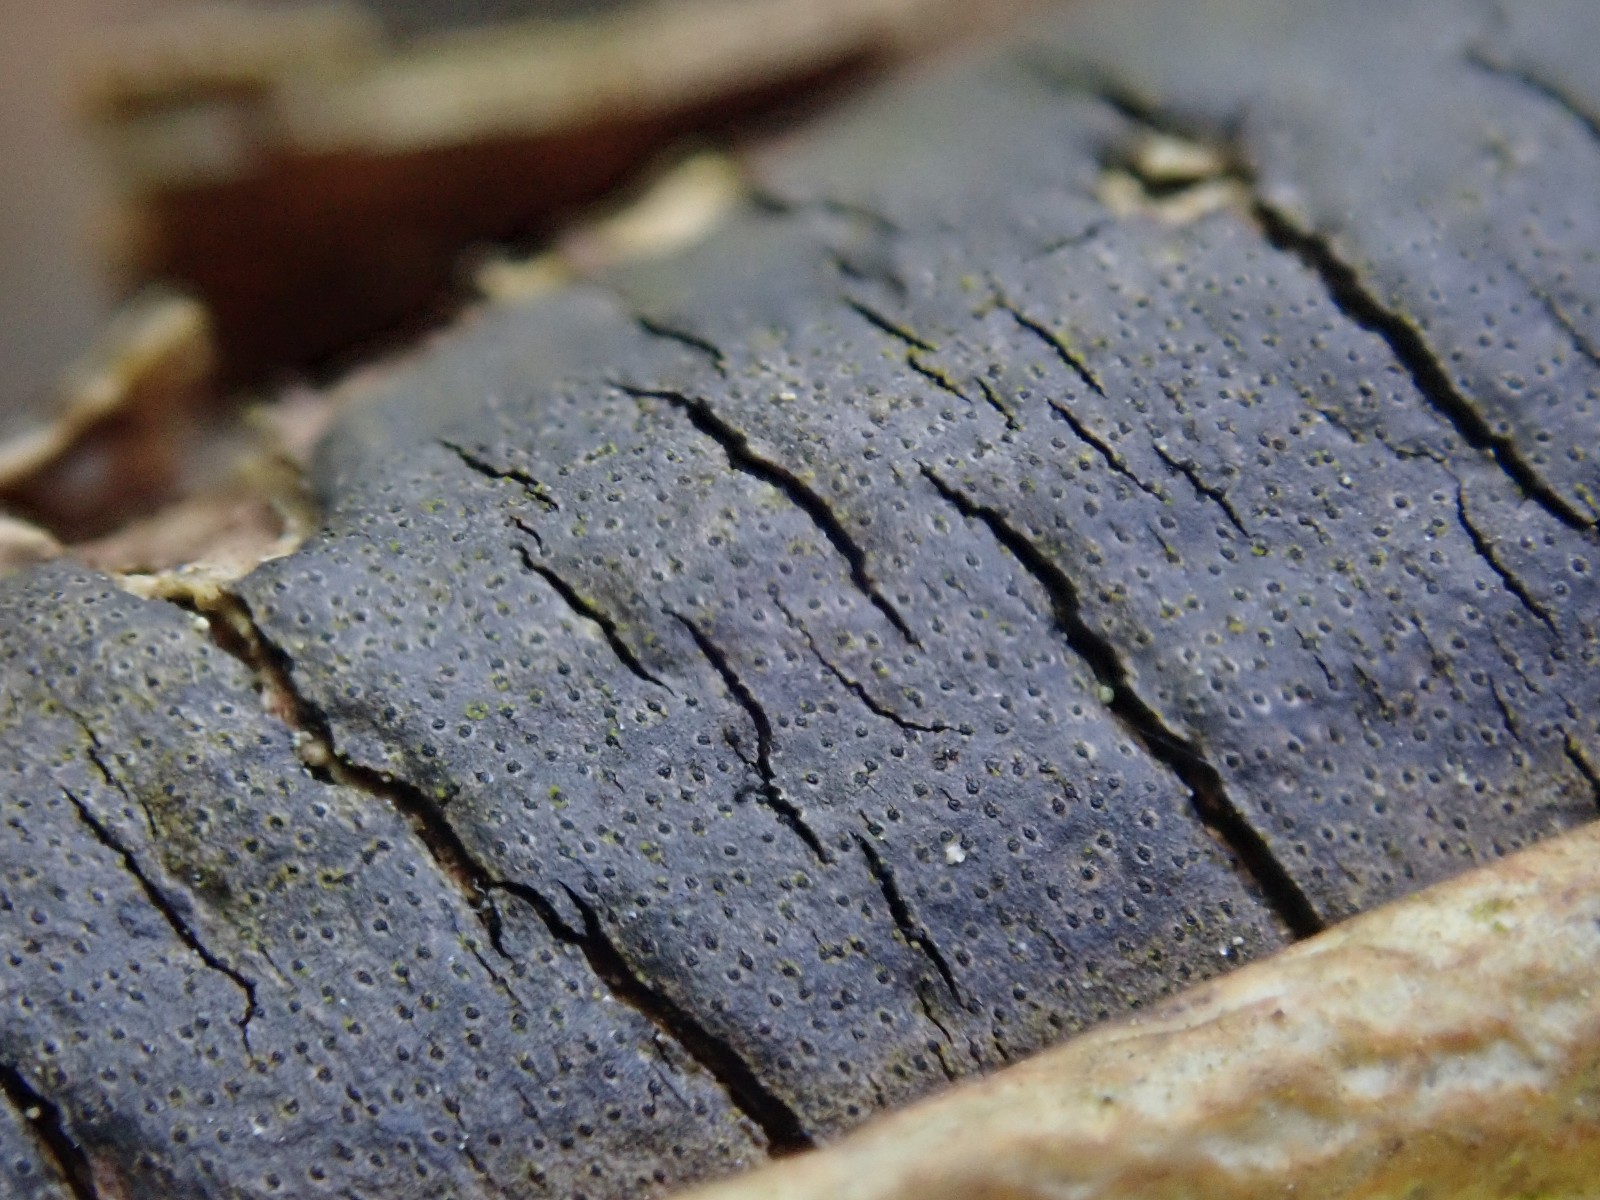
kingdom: Fungi
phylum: Ascomycota
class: Sordariomycetes
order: Xylariales
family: Diatrypaceae
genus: Diatrype
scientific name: Diatrype decorticata
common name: barksprænger-kulskorpe
